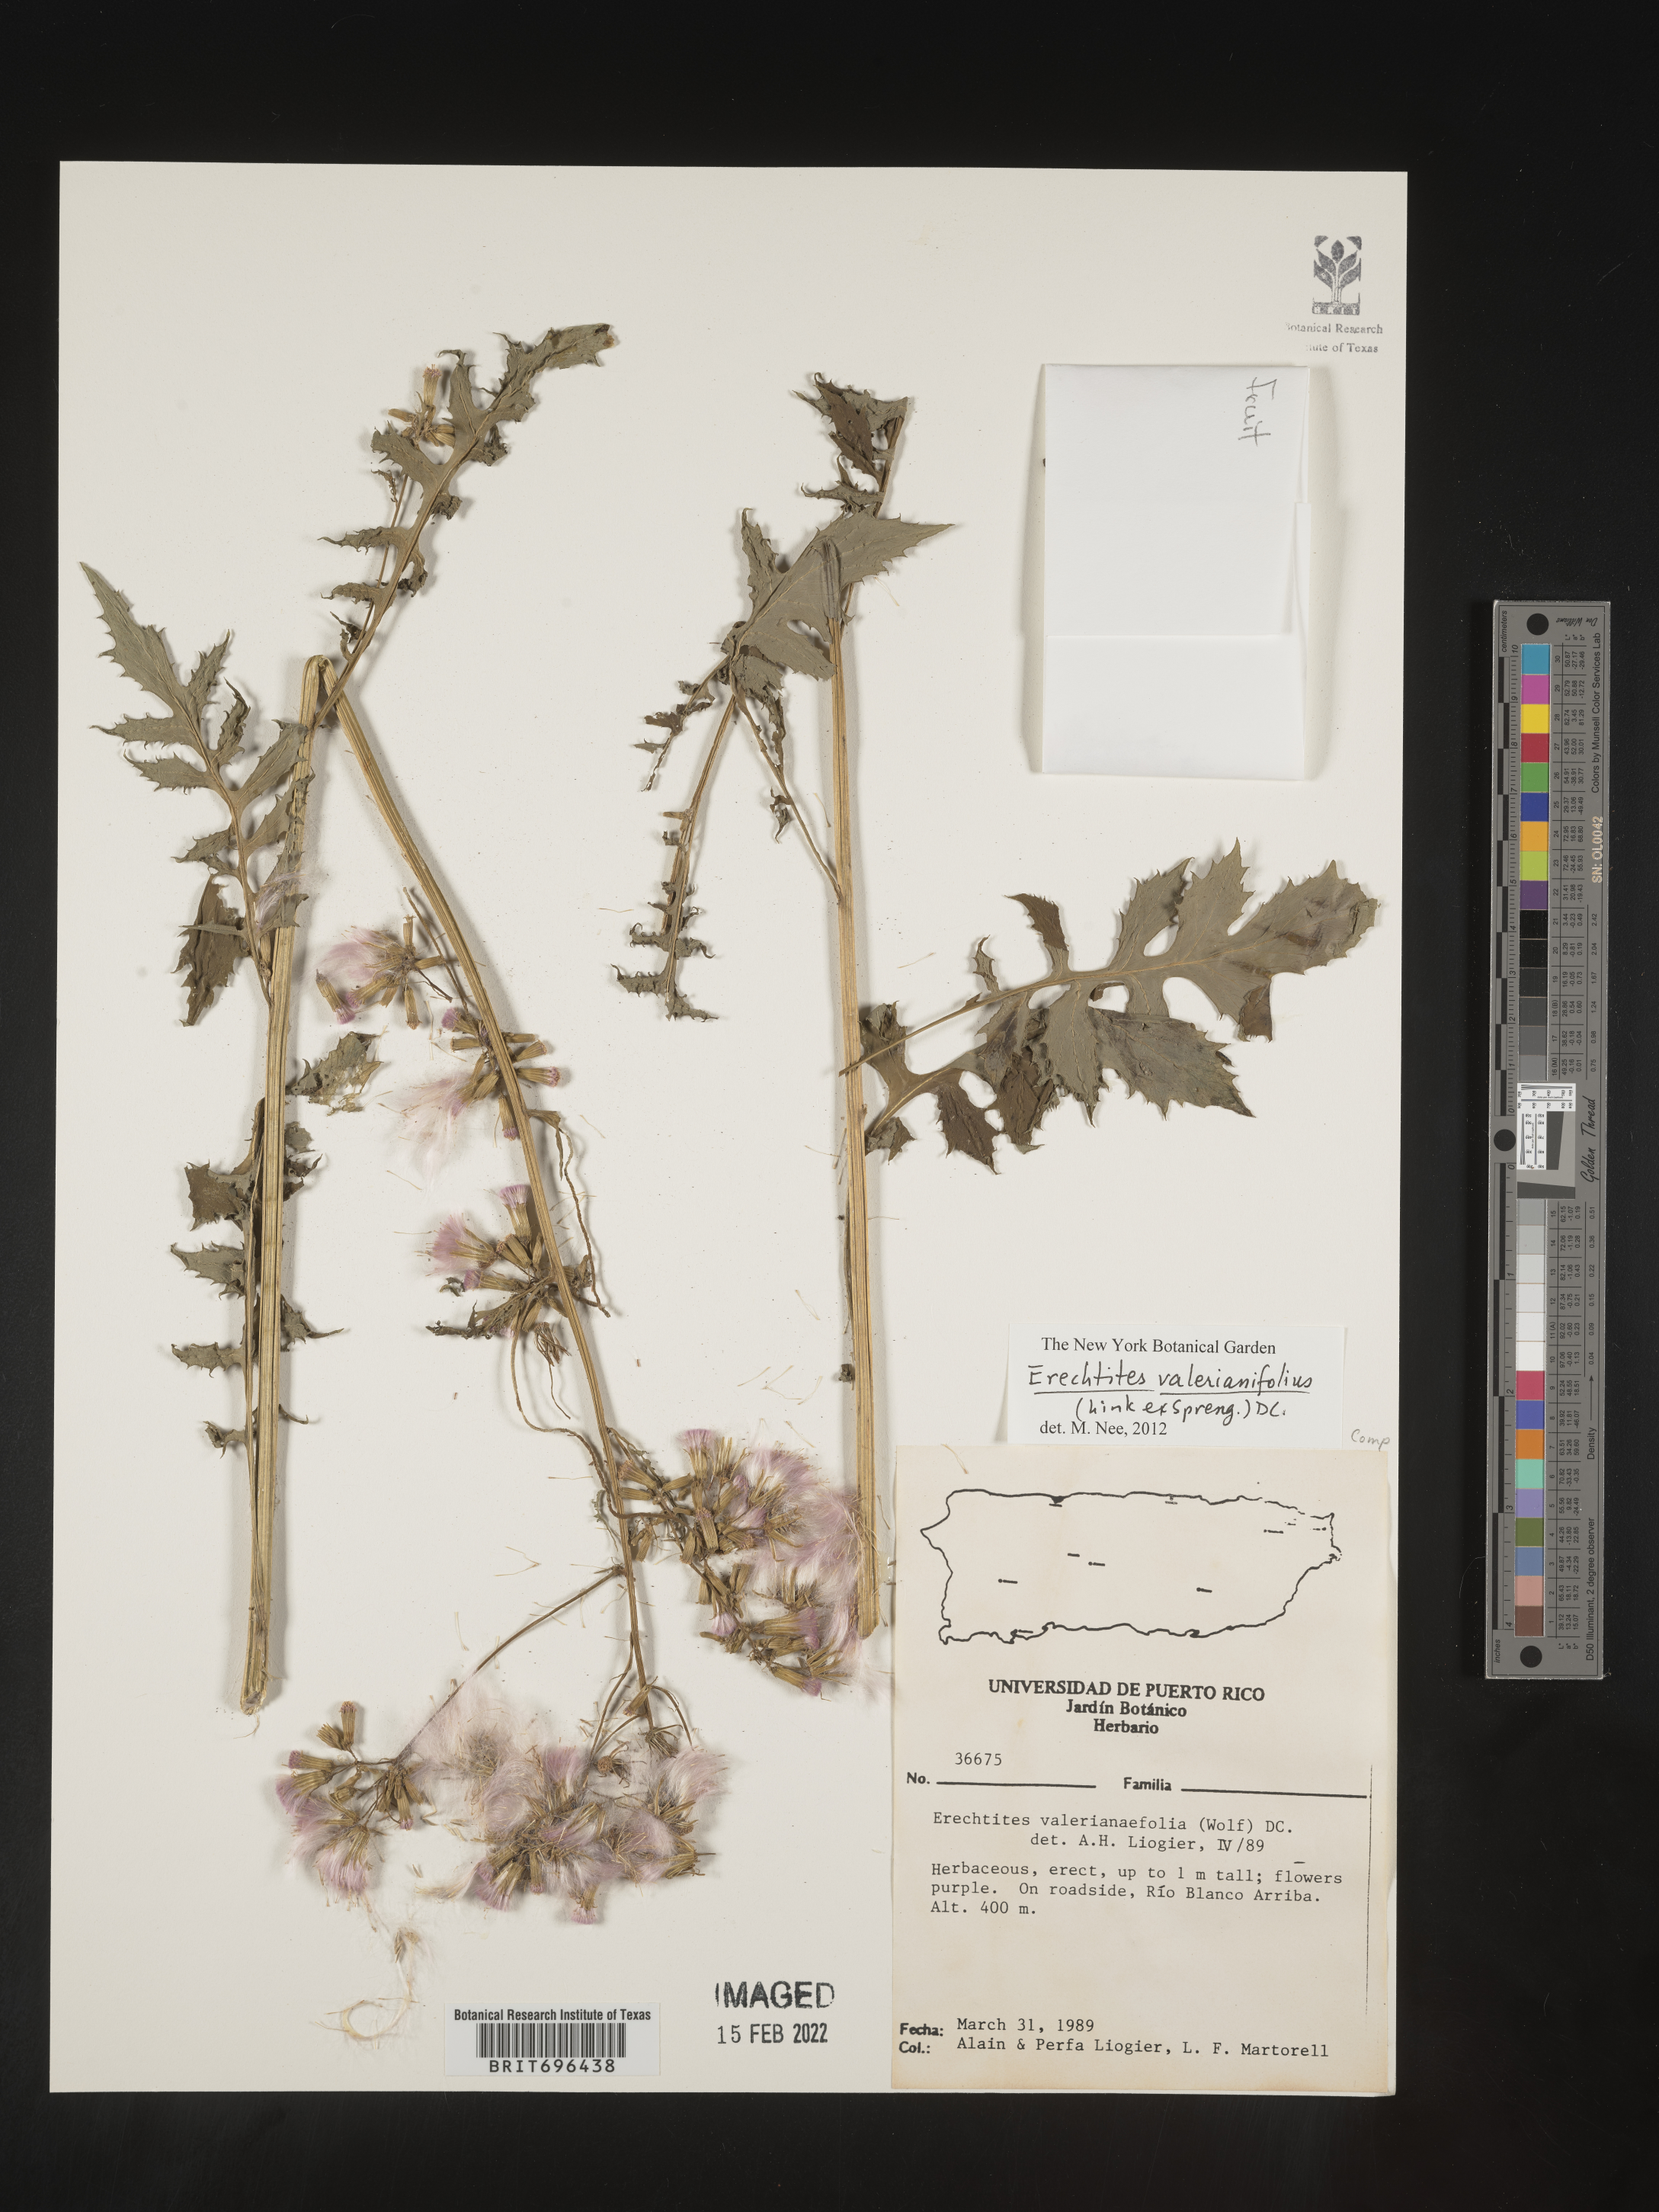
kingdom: Plantae
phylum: Tracheophyta
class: Magnoliopsida
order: Asterales
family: Asteraceae
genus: Erechtites
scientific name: Erechtites
